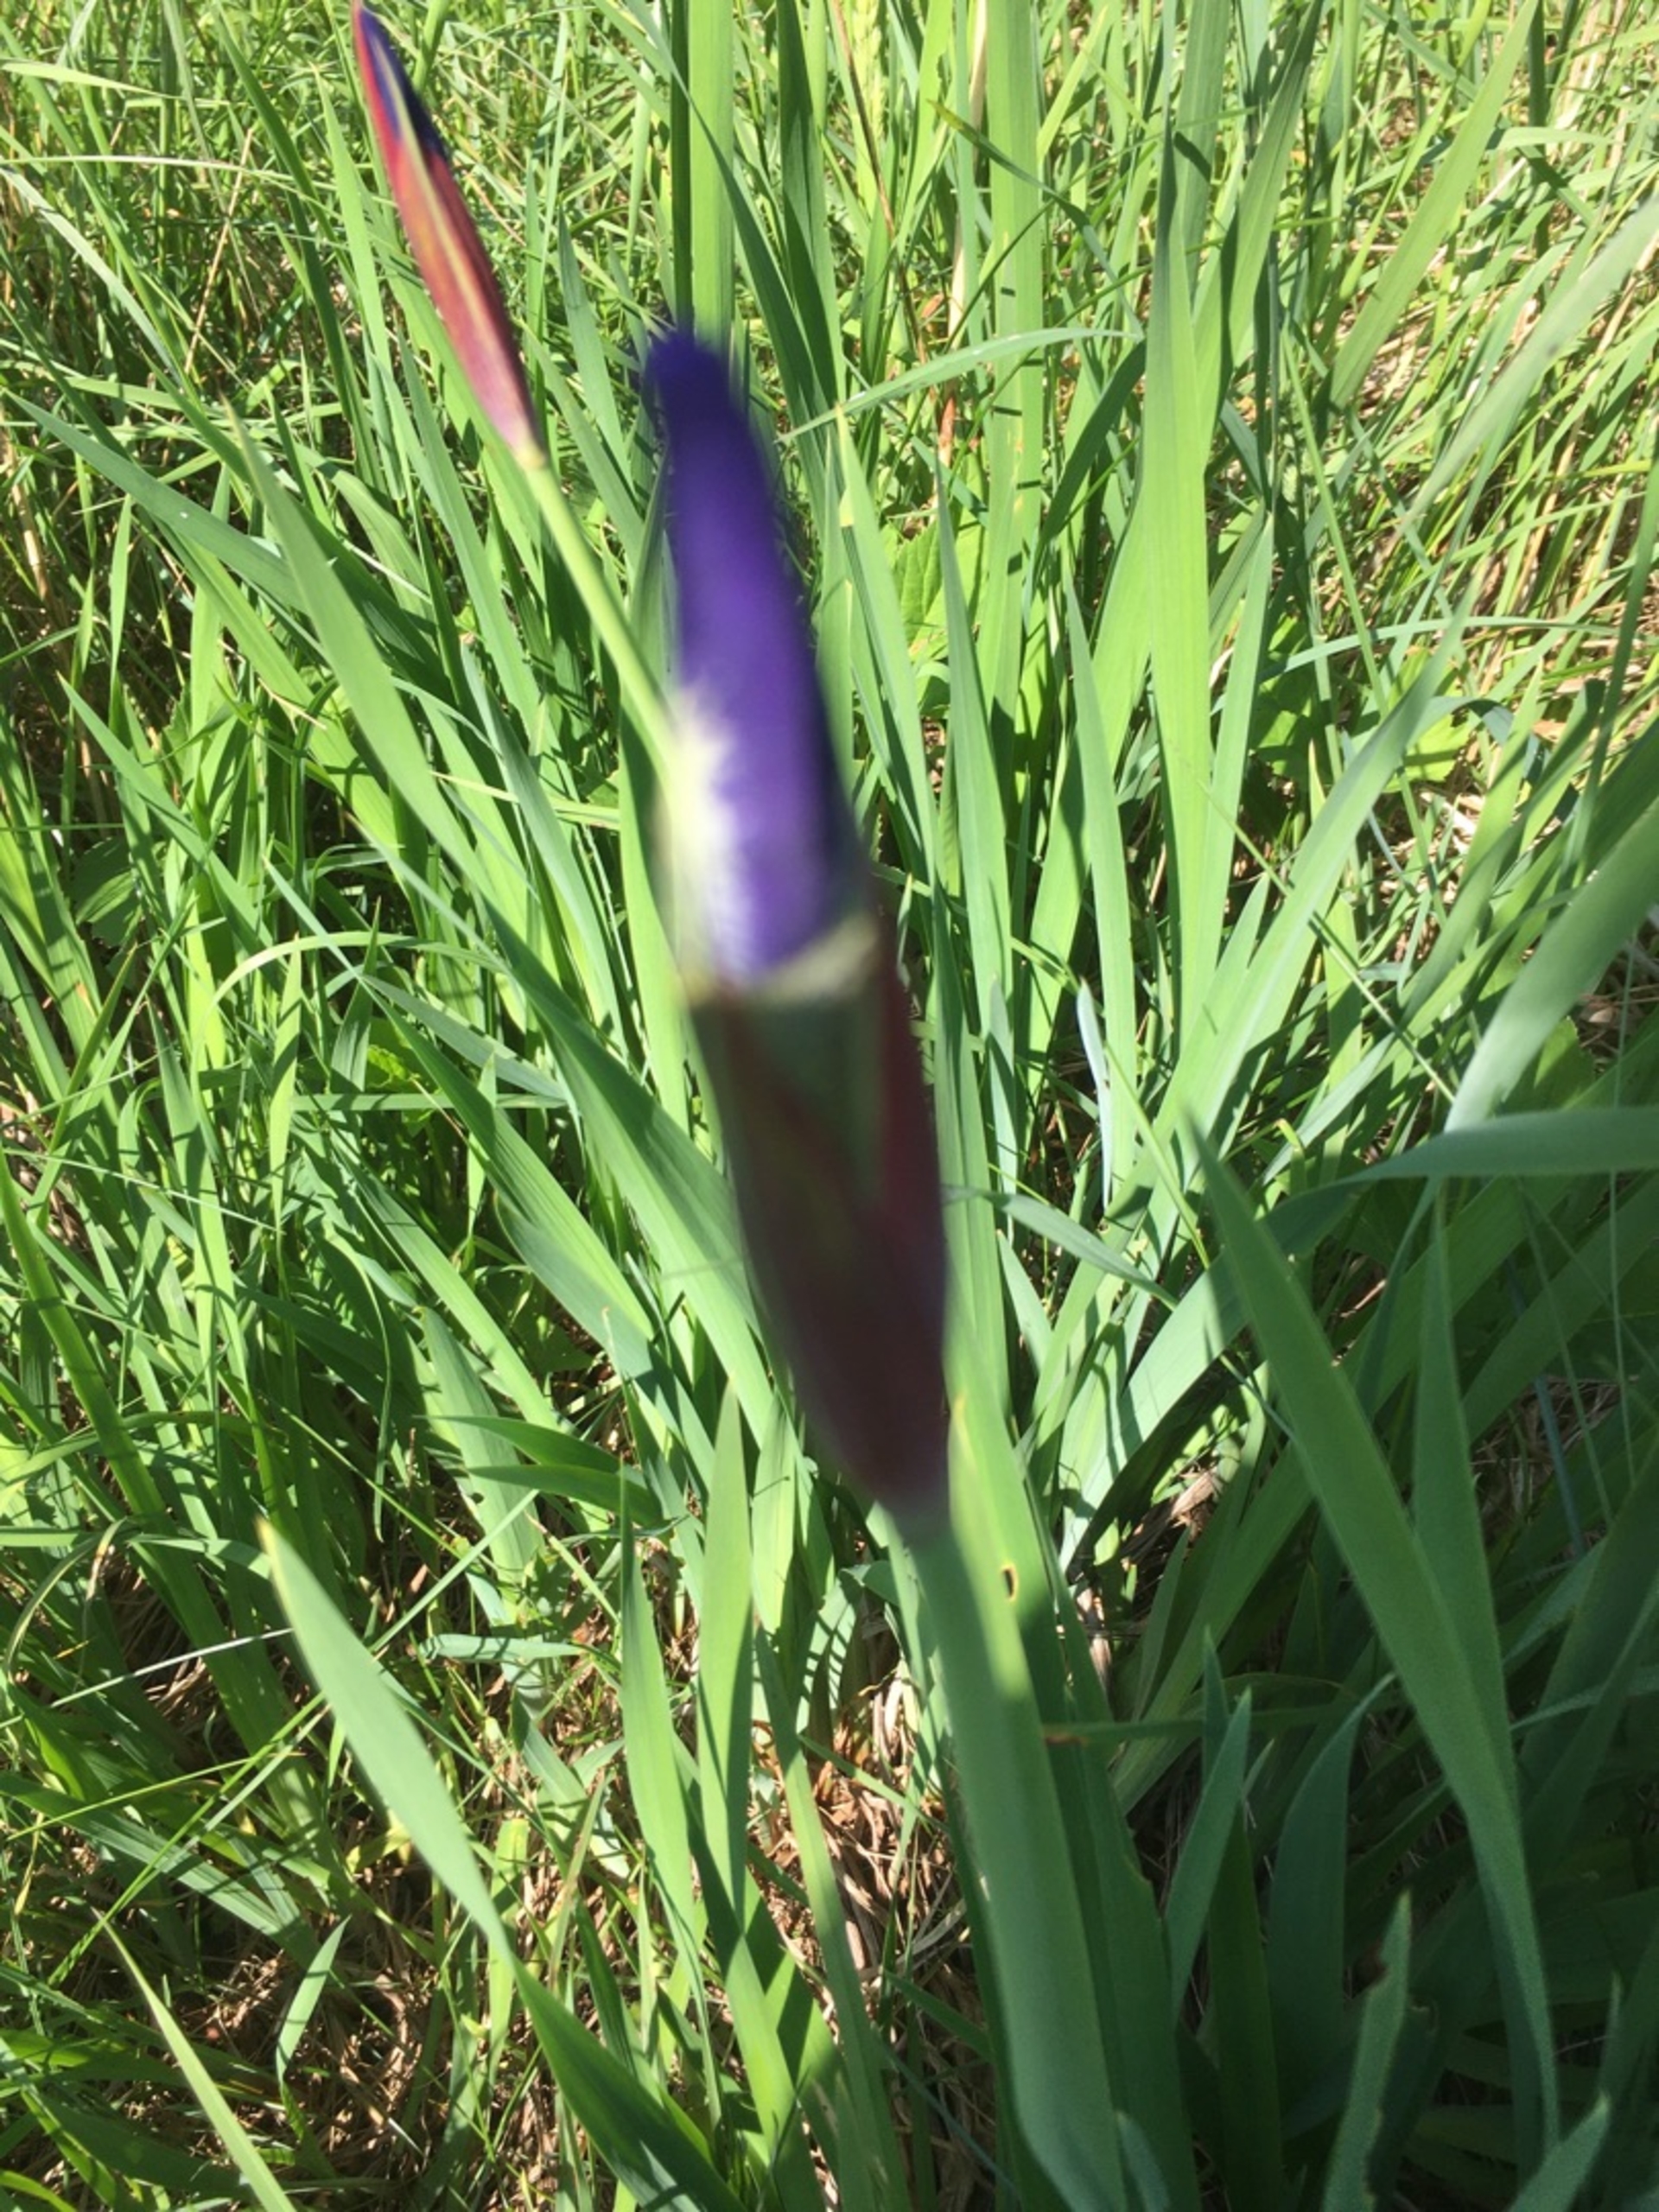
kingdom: Plantae
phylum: Tracheophyta
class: Liliopsida
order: Asparagales
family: Iridaceae
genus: Iris
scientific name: Iris sanguinea
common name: Viol-iris
